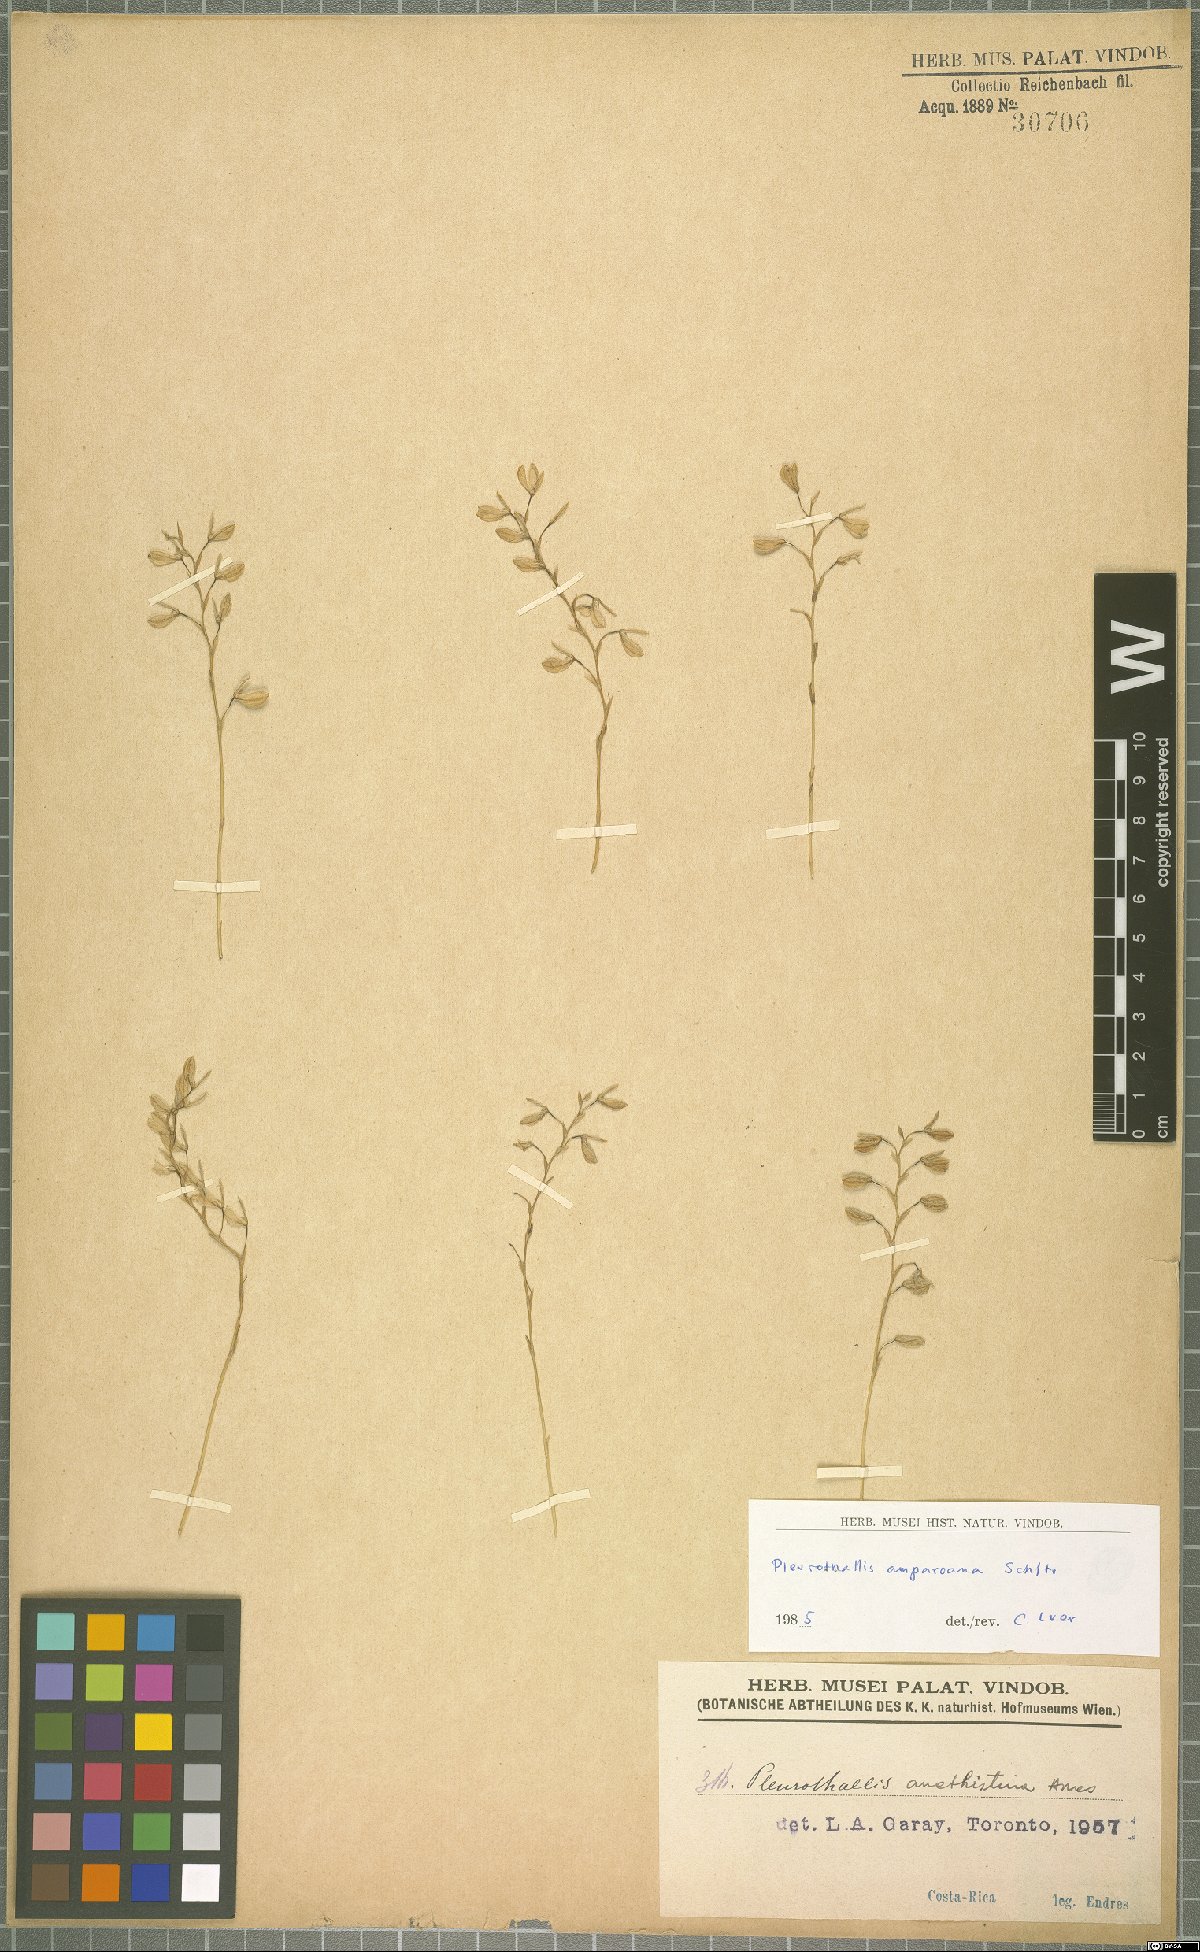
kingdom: Plantae
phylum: Tracheophyta
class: Liliopsida
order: Asparagales
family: Orchidaceae
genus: Stelis
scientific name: Stelis pilosa
